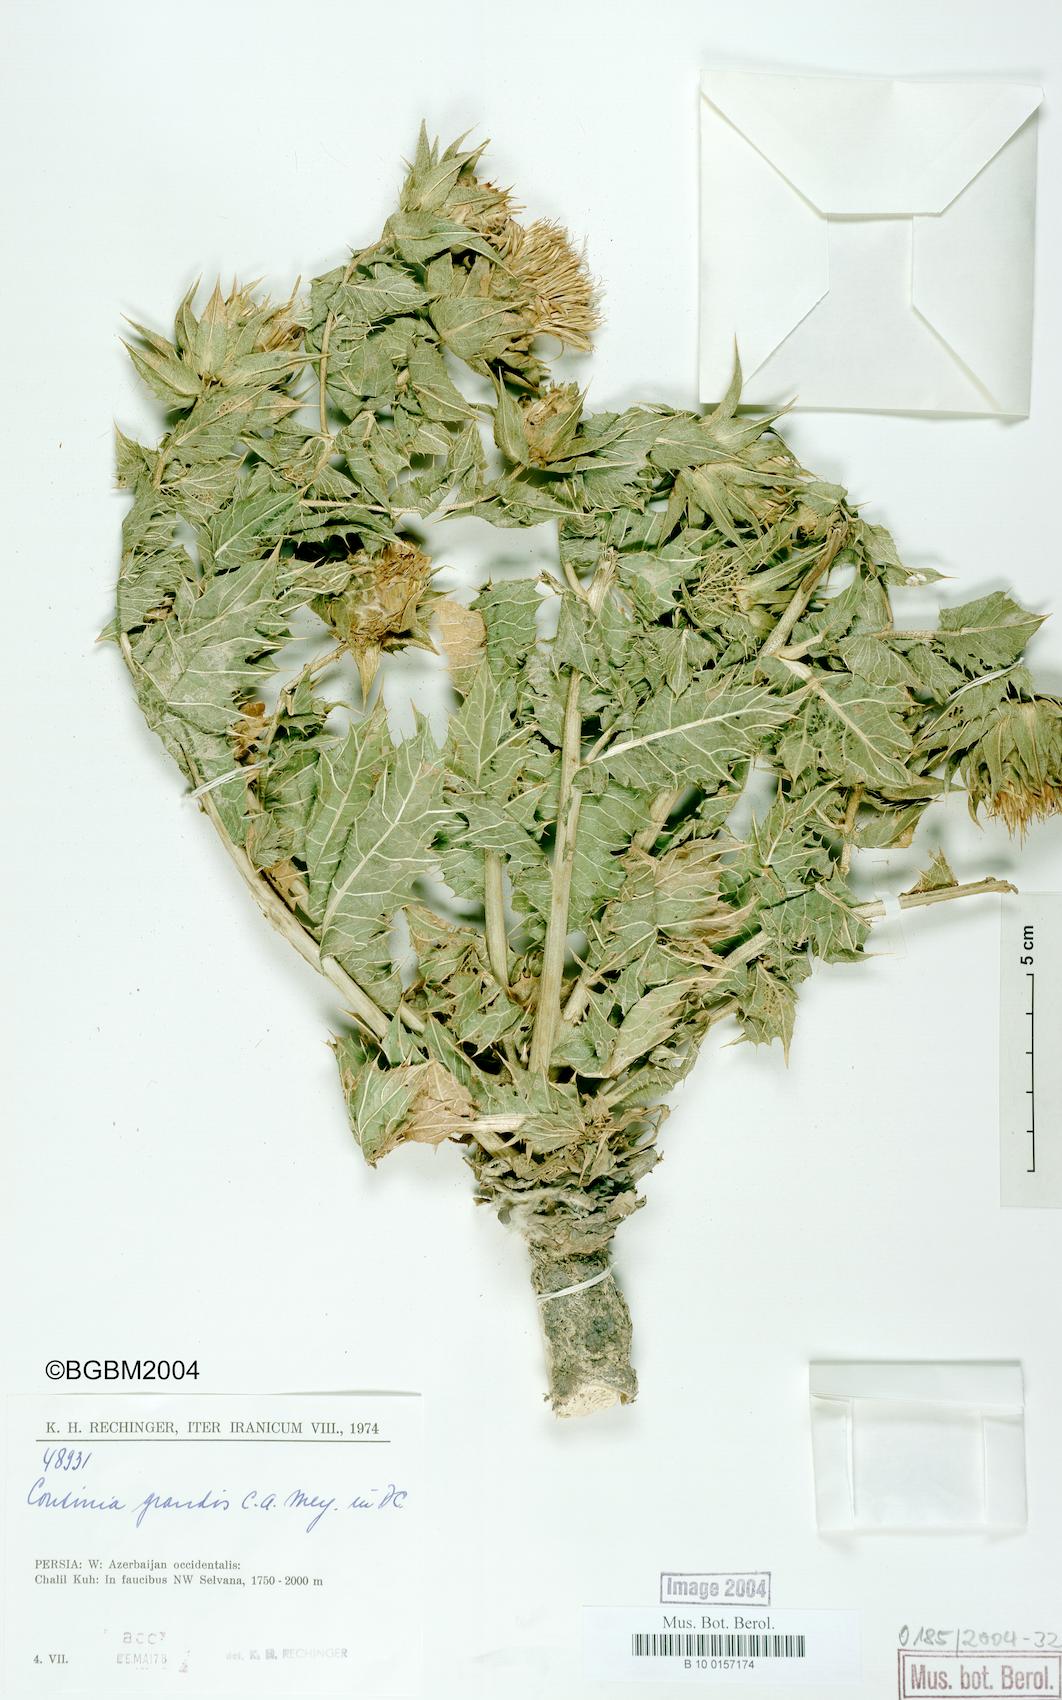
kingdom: Plantae
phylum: Tracheophyta
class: Magnoliopsida
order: Asterales
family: Asteraceae
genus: Cousinia
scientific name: Cousinia grandis
